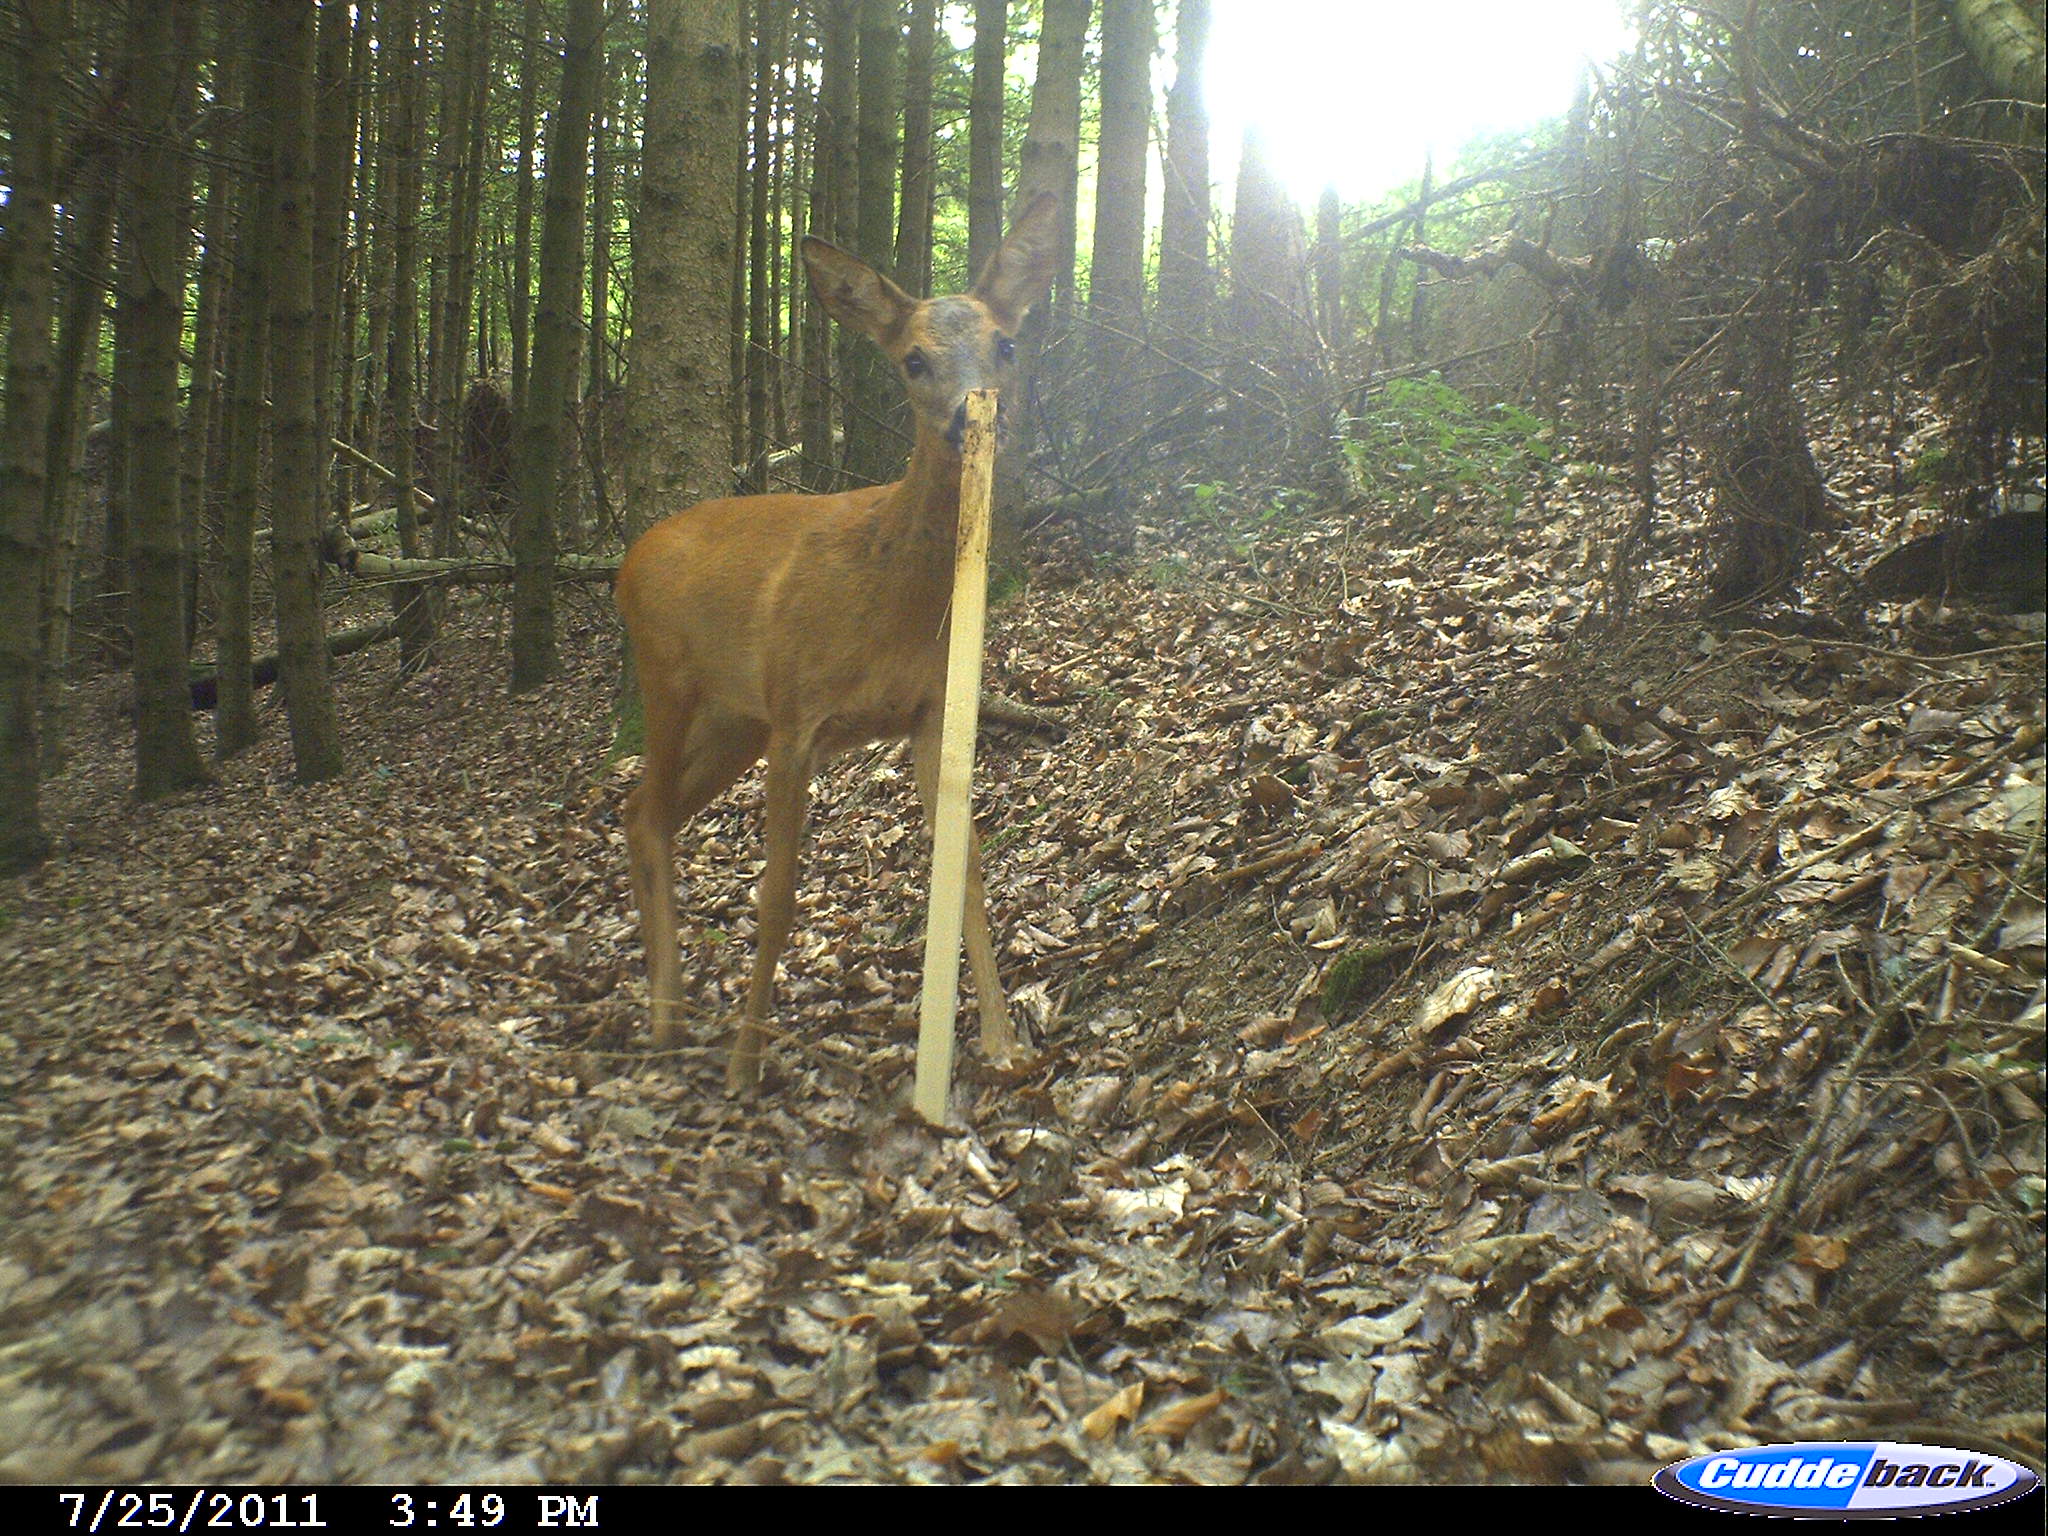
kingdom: Animalia
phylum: Chordata
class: Mammalia
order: Artiodactyla
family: Cervidae
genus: Capreolus
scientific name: Capreolus capreolus
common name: Western roe deer
